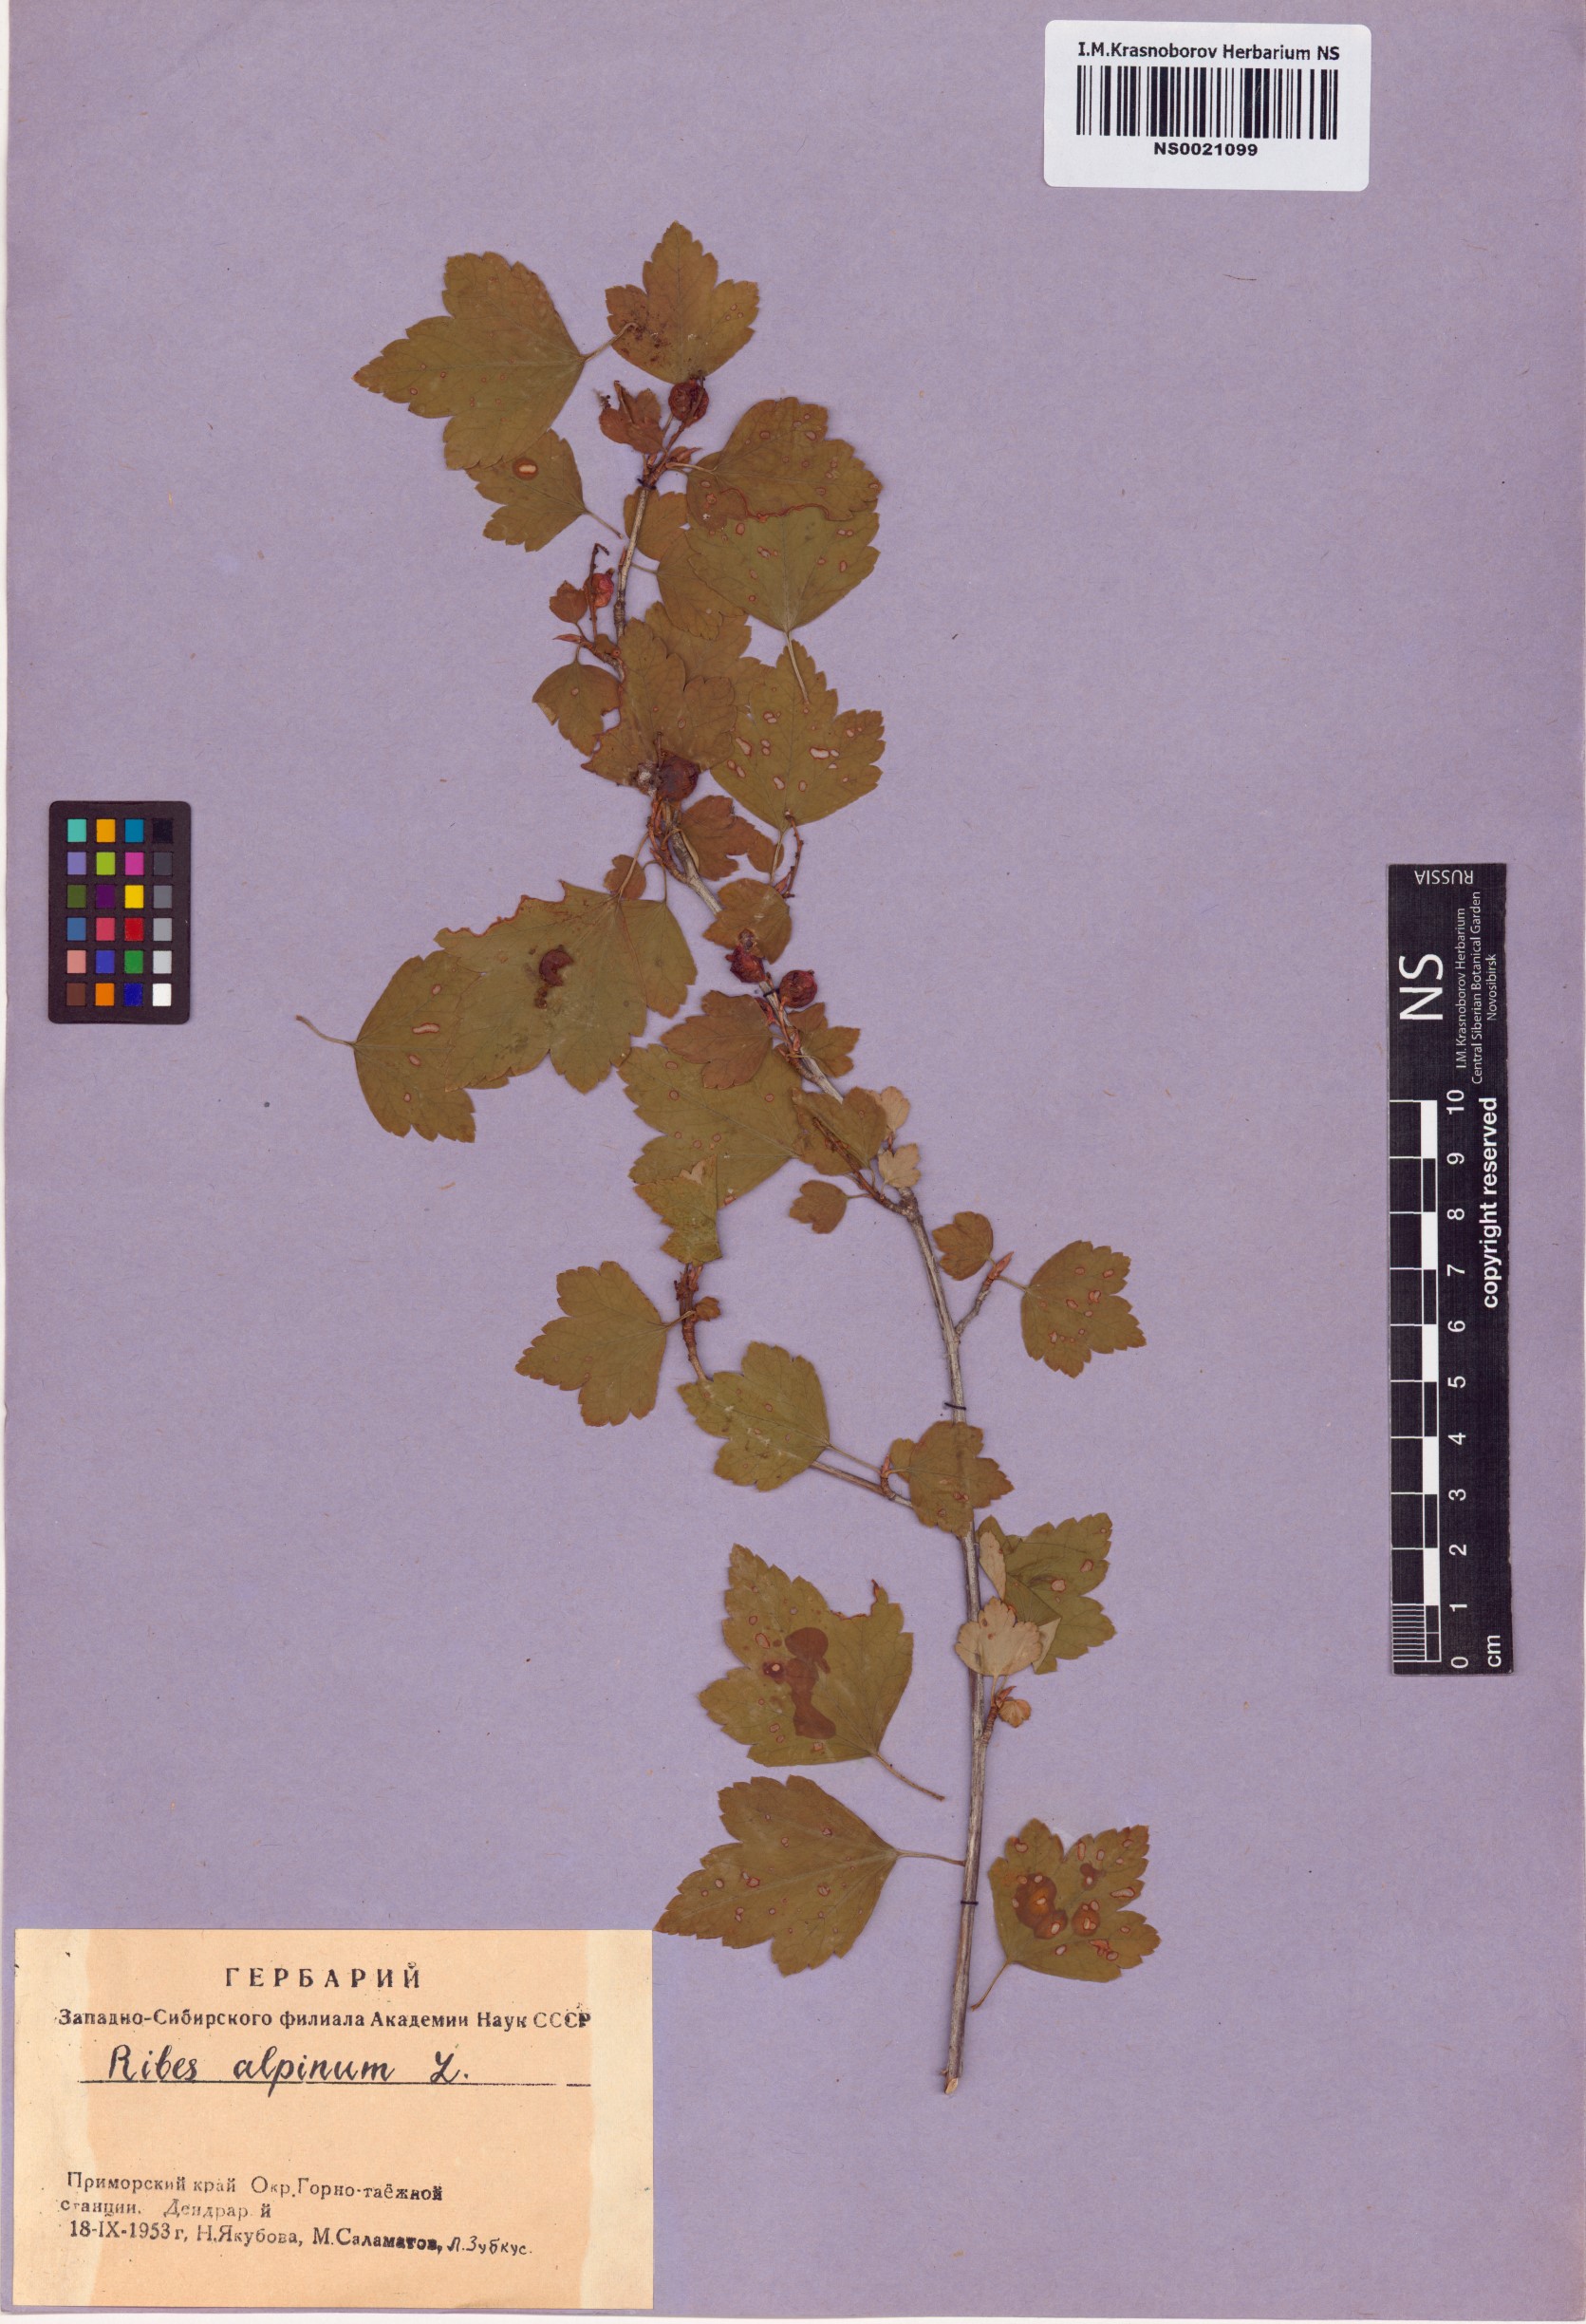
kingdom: Plantae
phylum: Tracheophyta
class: Magnoliopsida
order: Saxifragales
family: Grossulariaceae
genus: Ribes
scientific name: Ribes alpinum
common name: Alpine currant
